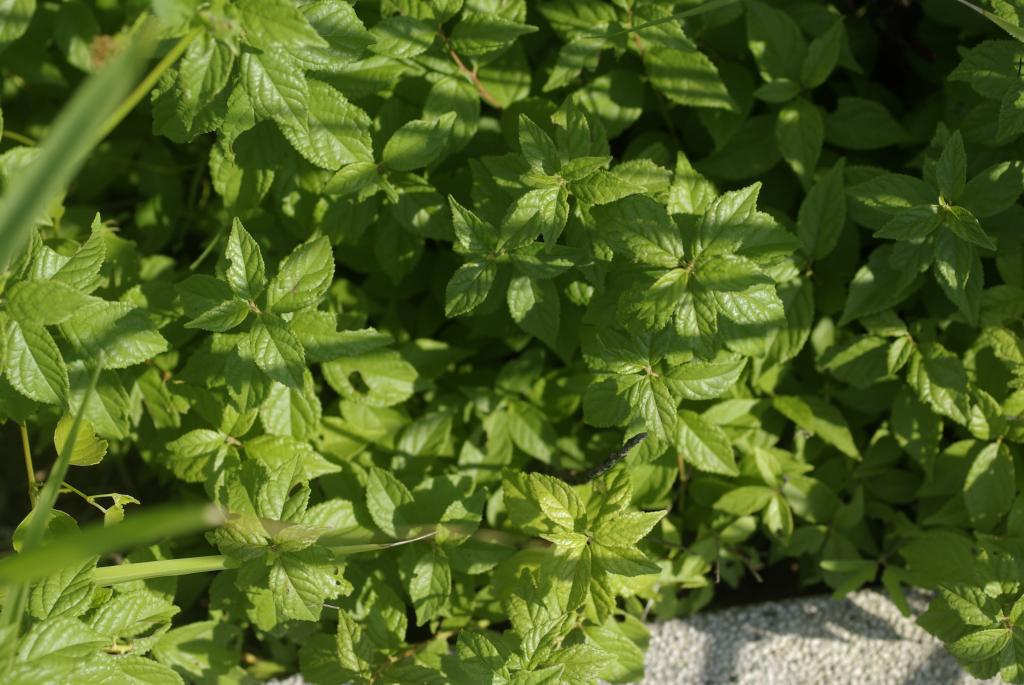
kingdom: Plantae
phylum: Tracheophyta
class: Magnoliopsida
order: Rosales
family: Rosaceae
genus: Prunus
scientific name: Prunus pogonostyla
